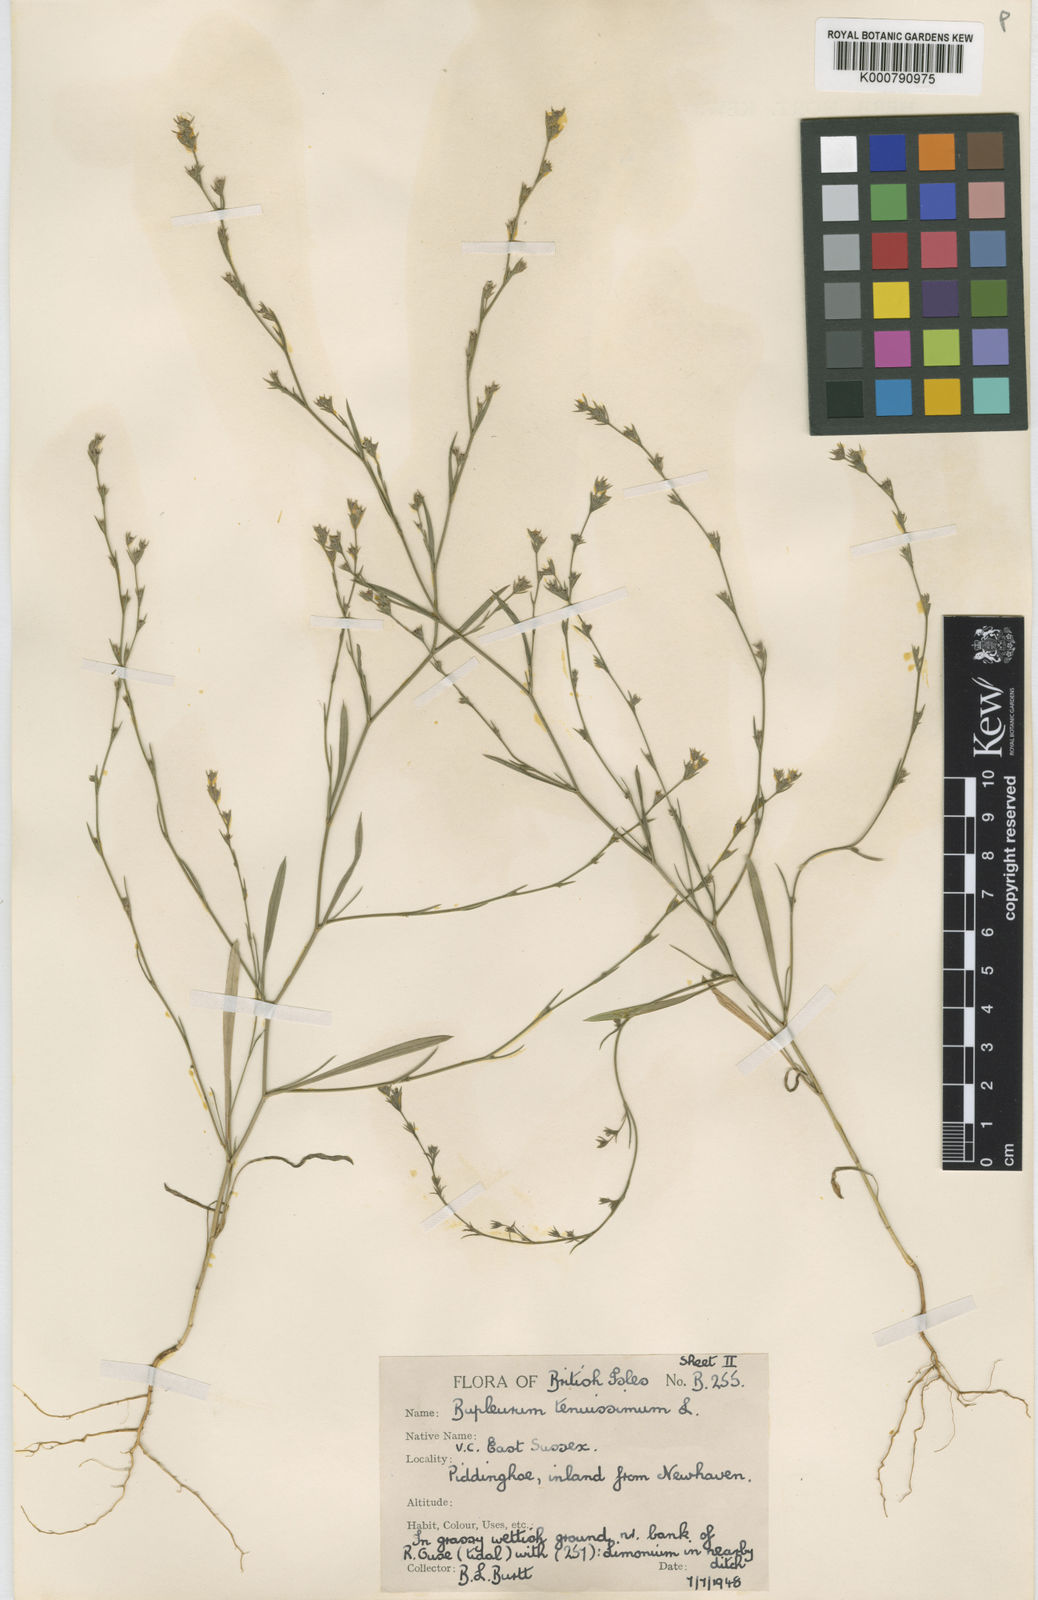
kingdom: Plantae
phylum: Tracheophyta
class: Magnoliopsida
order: Apiales
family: Apiaceae
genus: Bupleurum
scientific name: Bupleurum tenuissimum
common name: Slender hare's-ear
